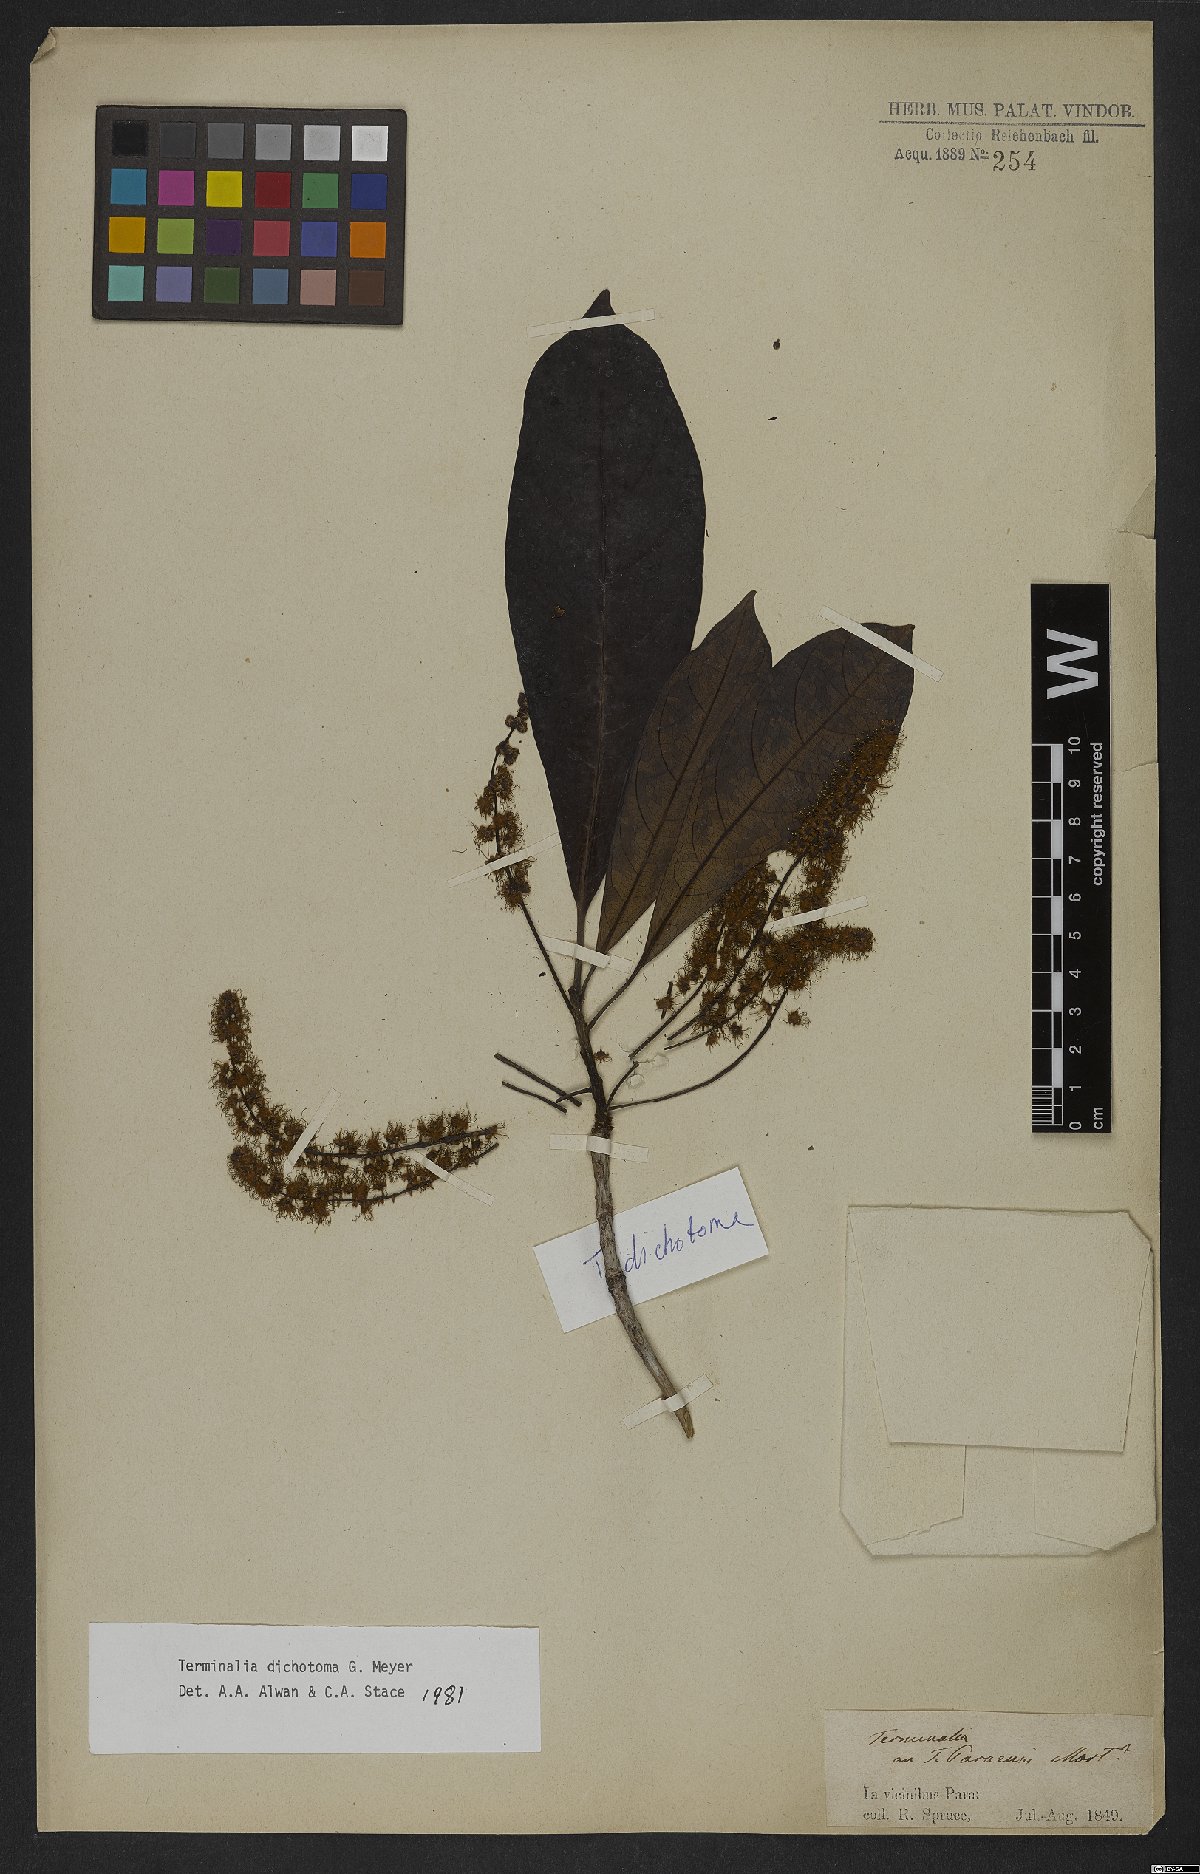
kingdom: Plantae
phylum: Tracheophyta
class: Magnoliopsida
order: Myrtales
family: Combretaceae
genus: Terminalia
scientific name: Terminalia dichotoma
